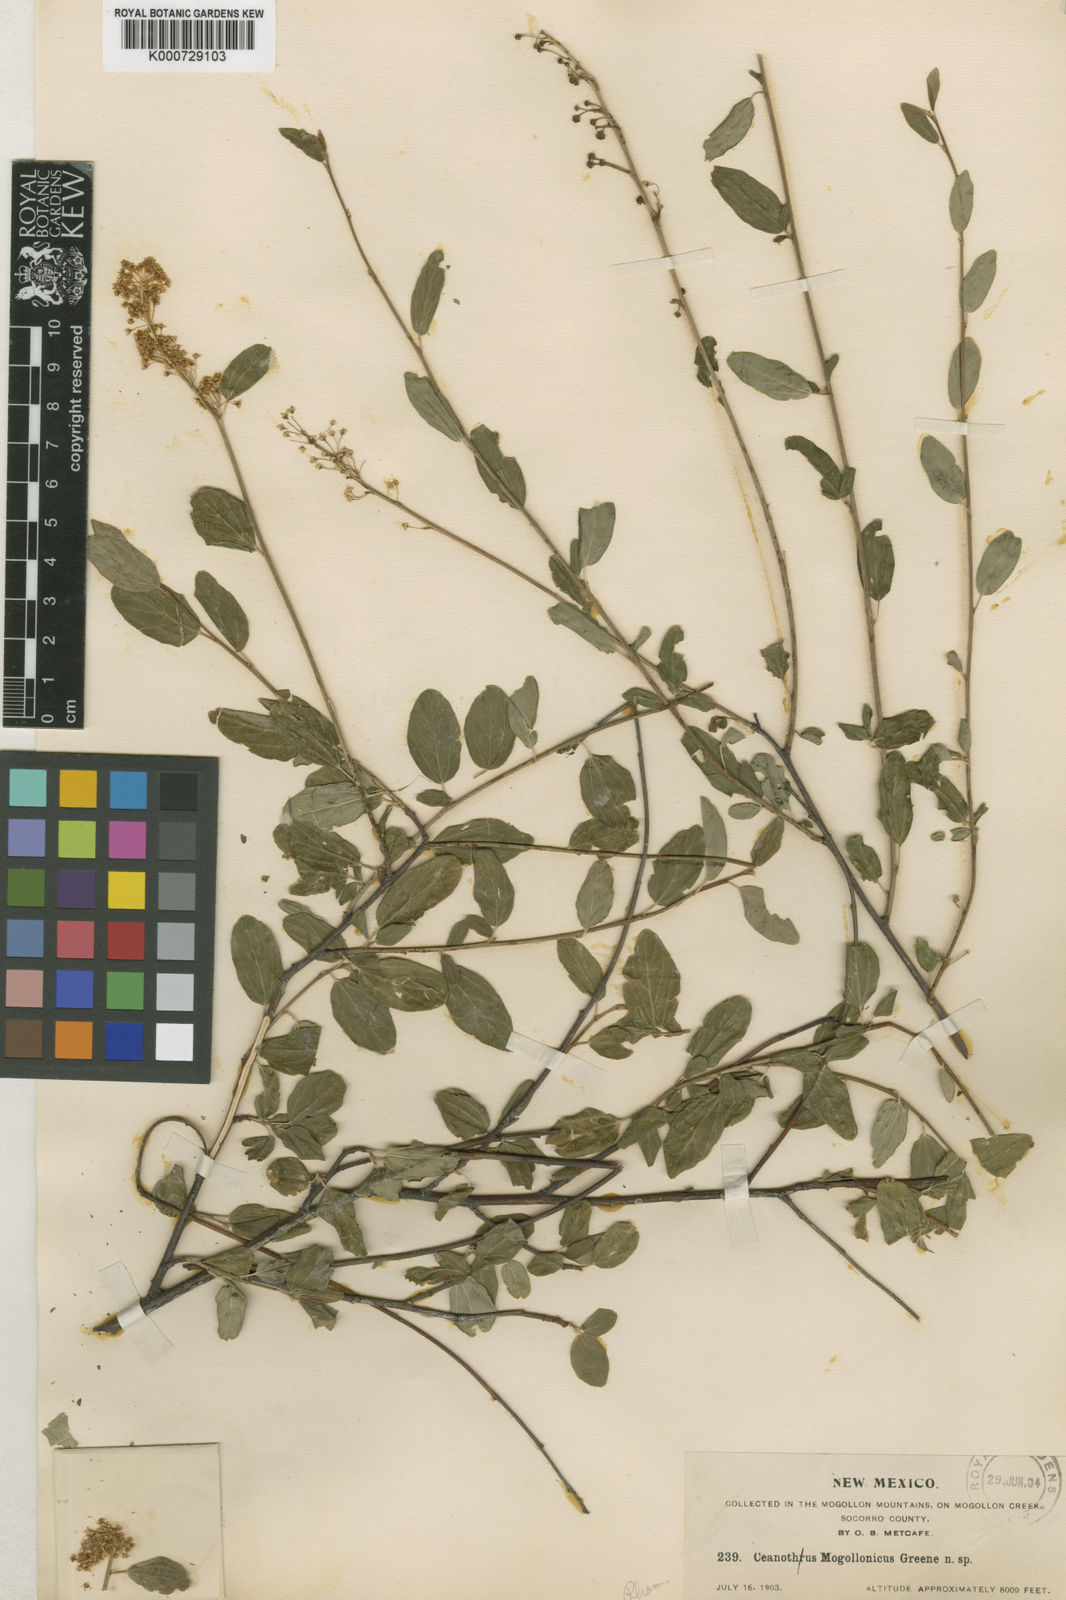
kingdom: Plantae
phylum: Tracheophyta
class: Magnoliopsida
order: Rosales
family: Rhamnaceae
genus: Ceanothus
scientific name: Ceanothus integerrimus
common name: Deerbrush ceanothus
